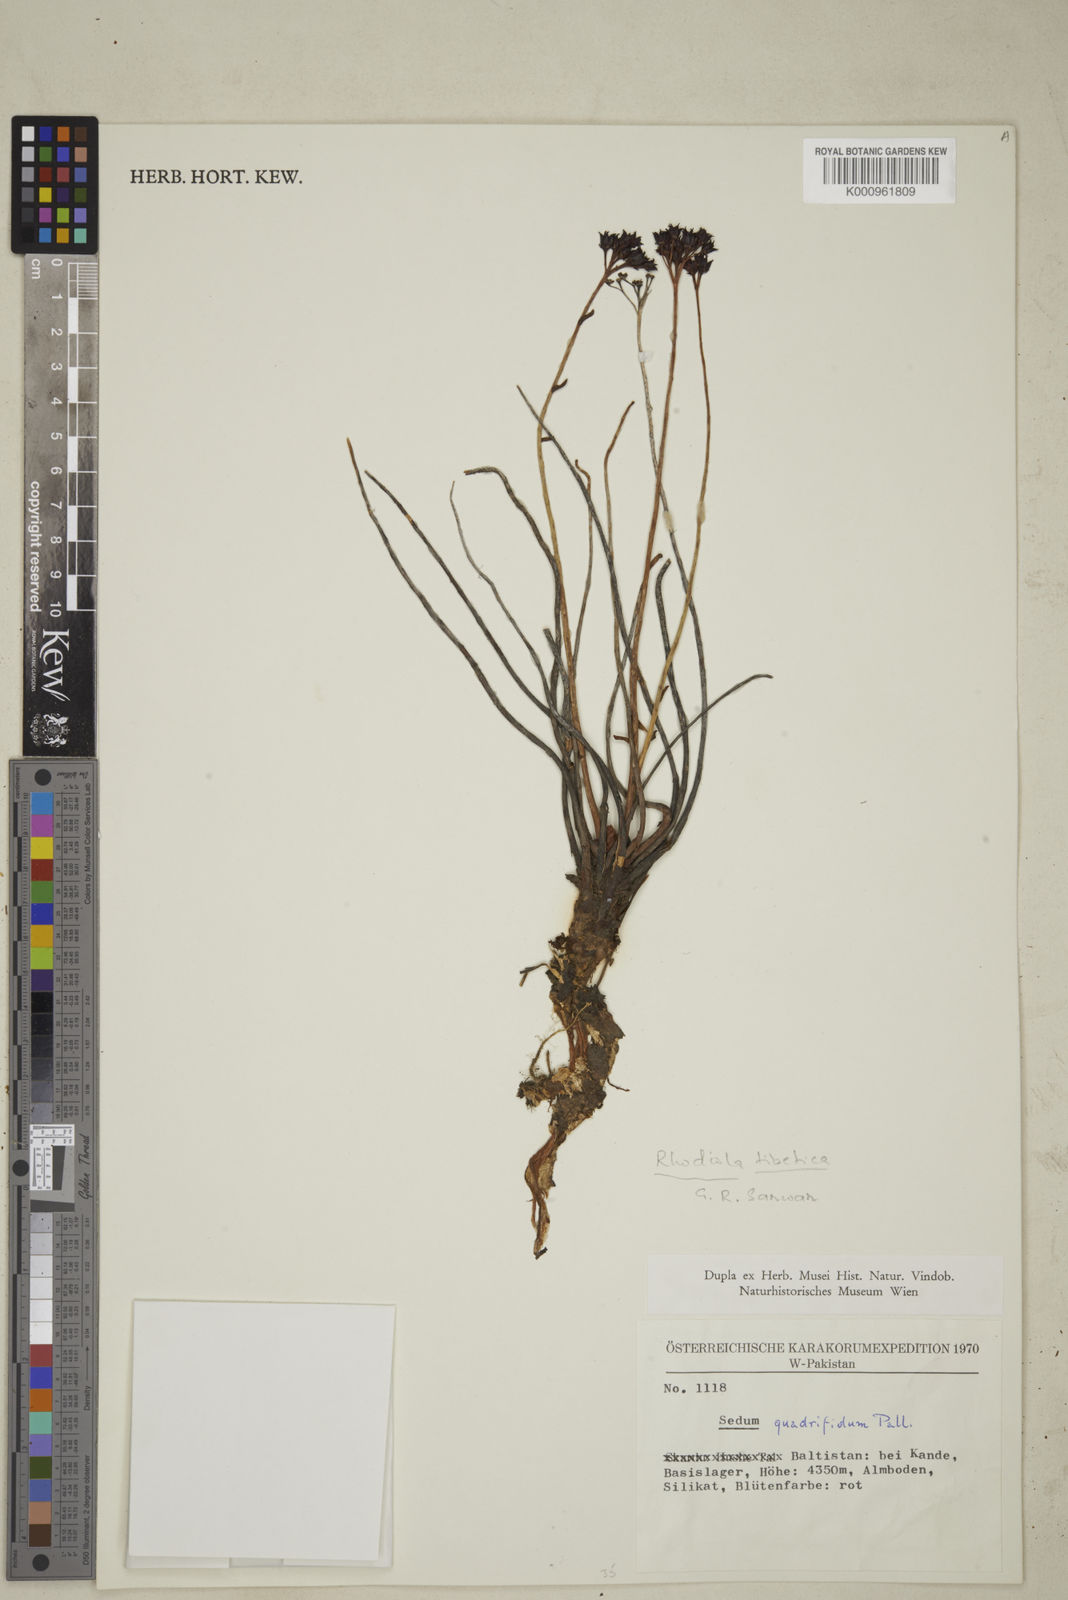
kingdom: Plantae
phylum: Tracheophyta
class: Magnoliopsida
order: Saxifragales
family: Crassulaceae
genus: Aeonium
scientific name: Aeonium
